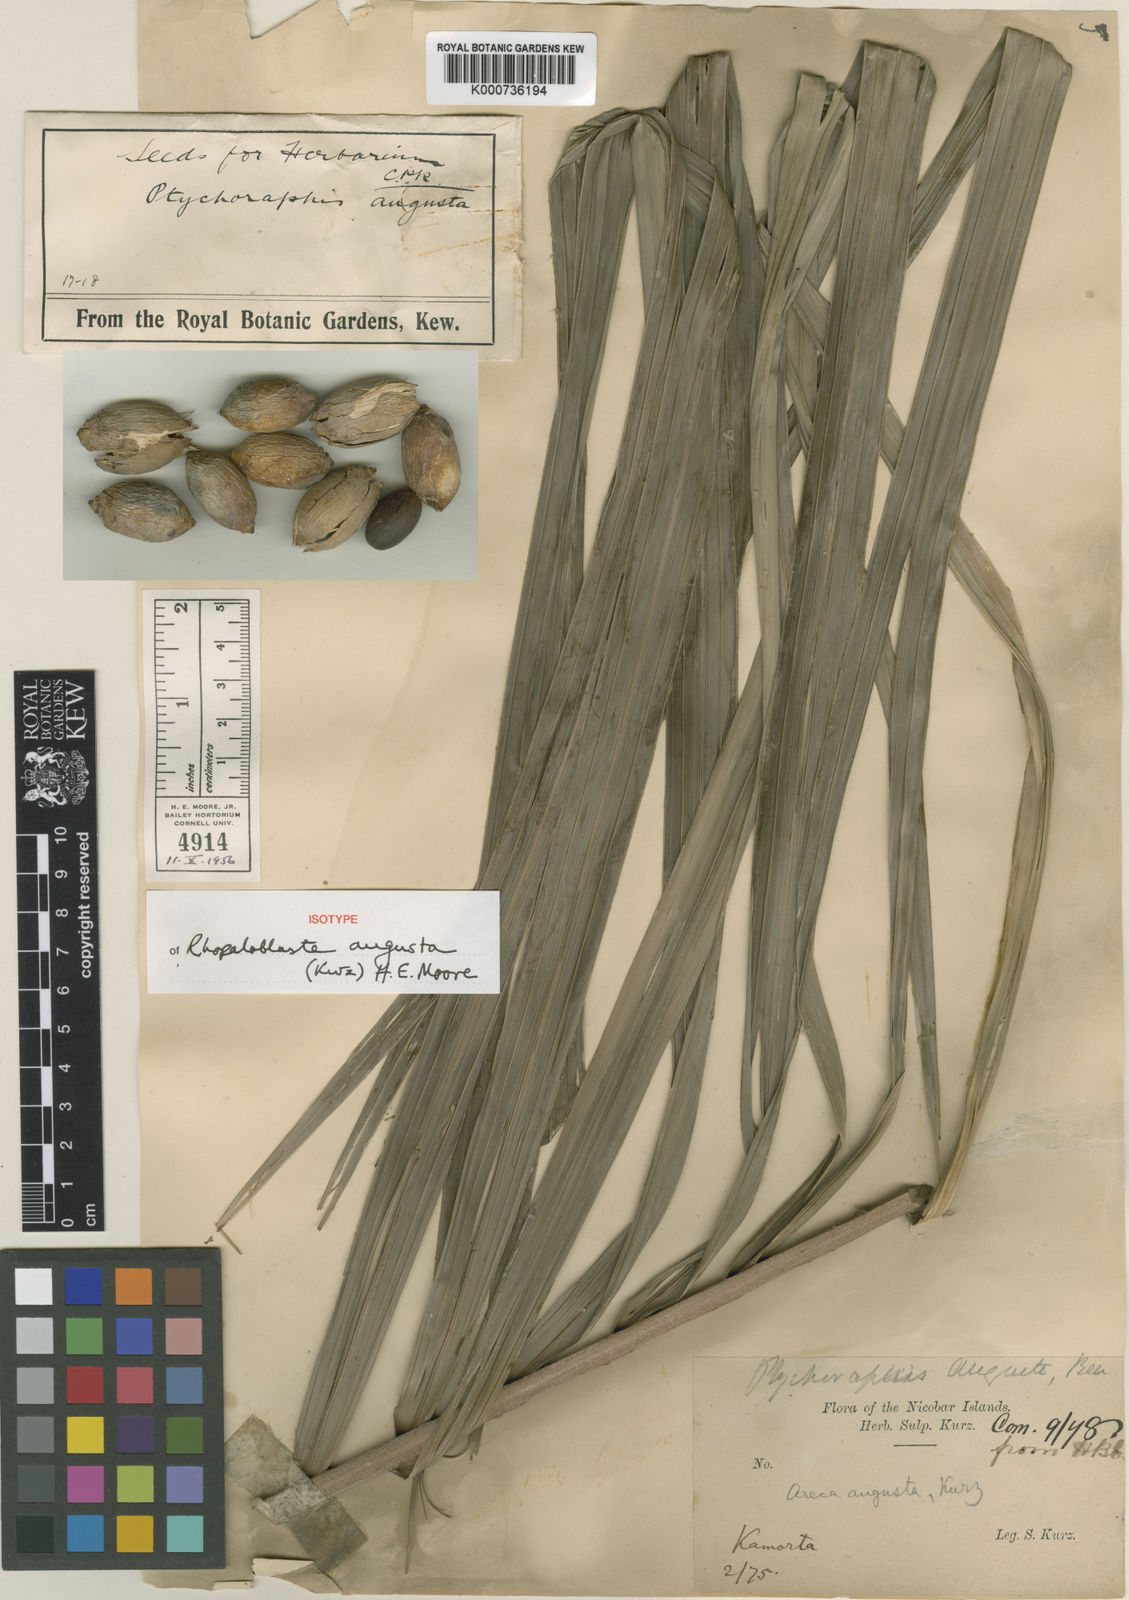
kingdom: Plantae
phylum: Tracheophyta
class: Liliopsida
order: Arecales
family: Arecaceae
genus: Rhopaloblaste
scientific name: Rhopaloblaste augusta
